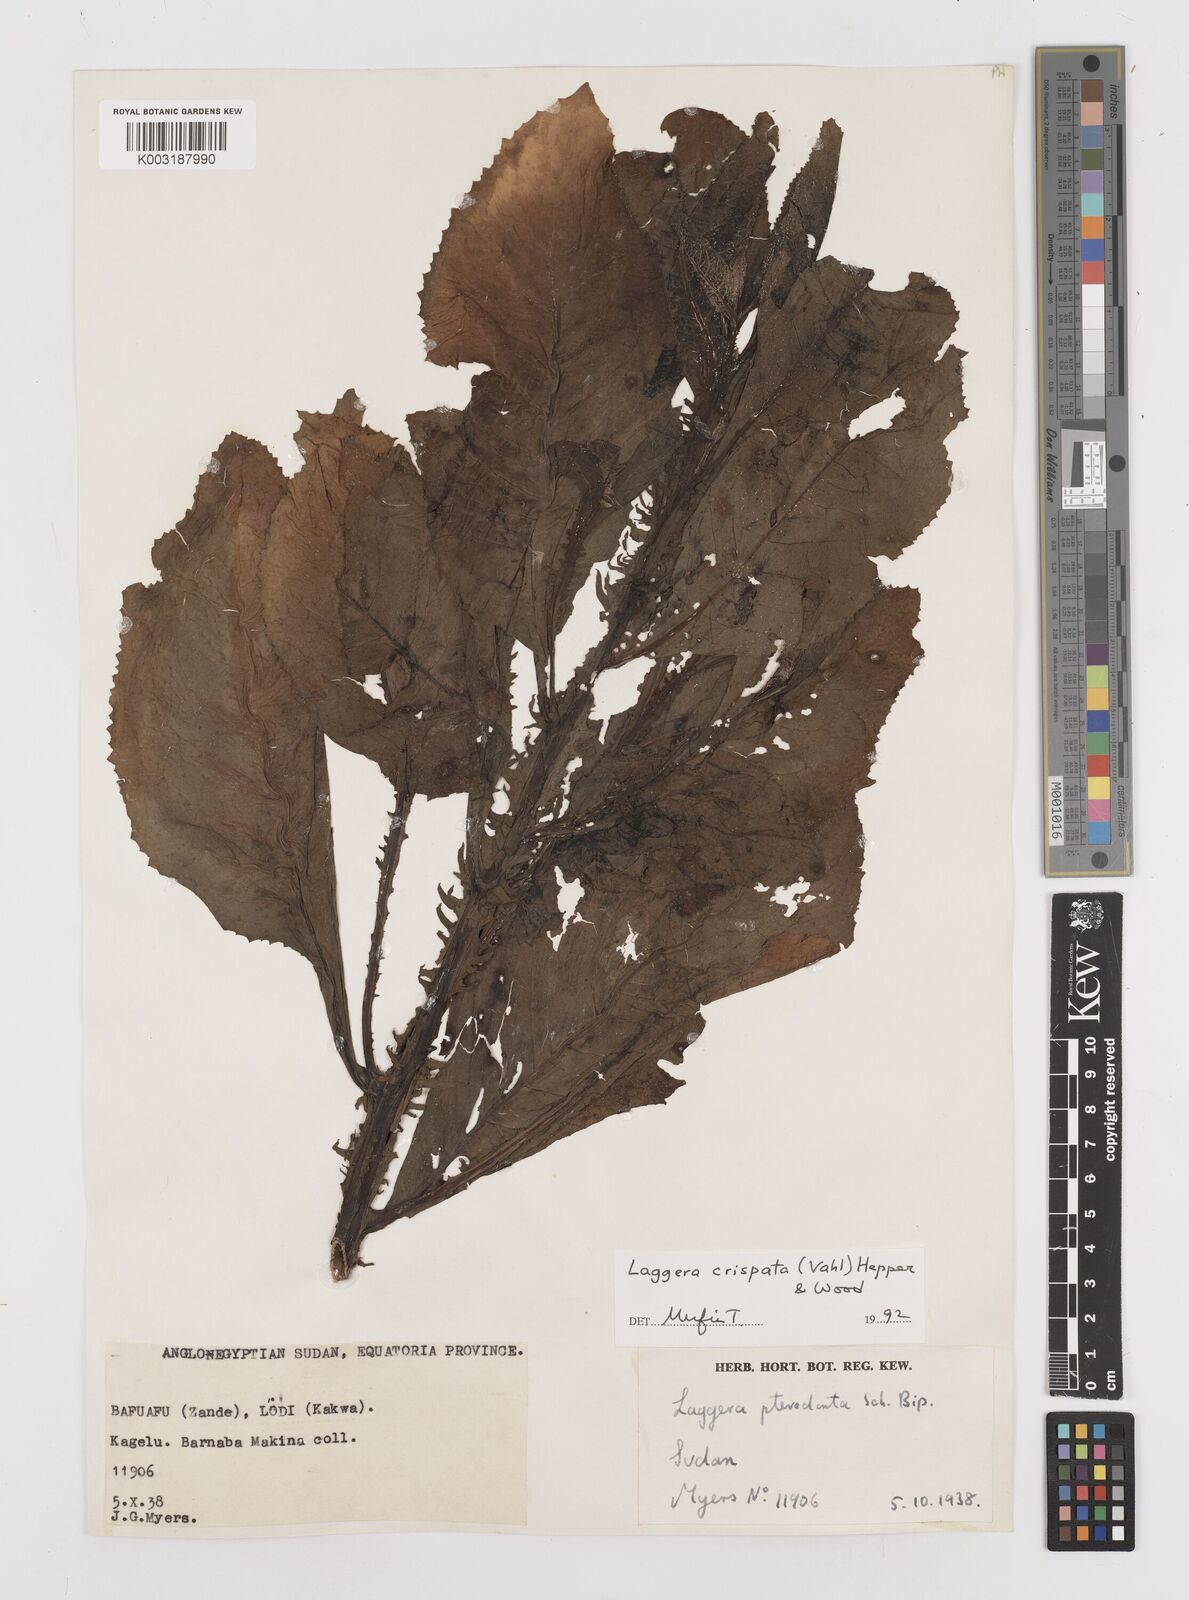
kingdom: Plantae
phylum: Tracheophyta
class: Magnoliopsida
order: Asterales
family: Asteraceae
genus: Laggera
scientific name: Laggera crispata
